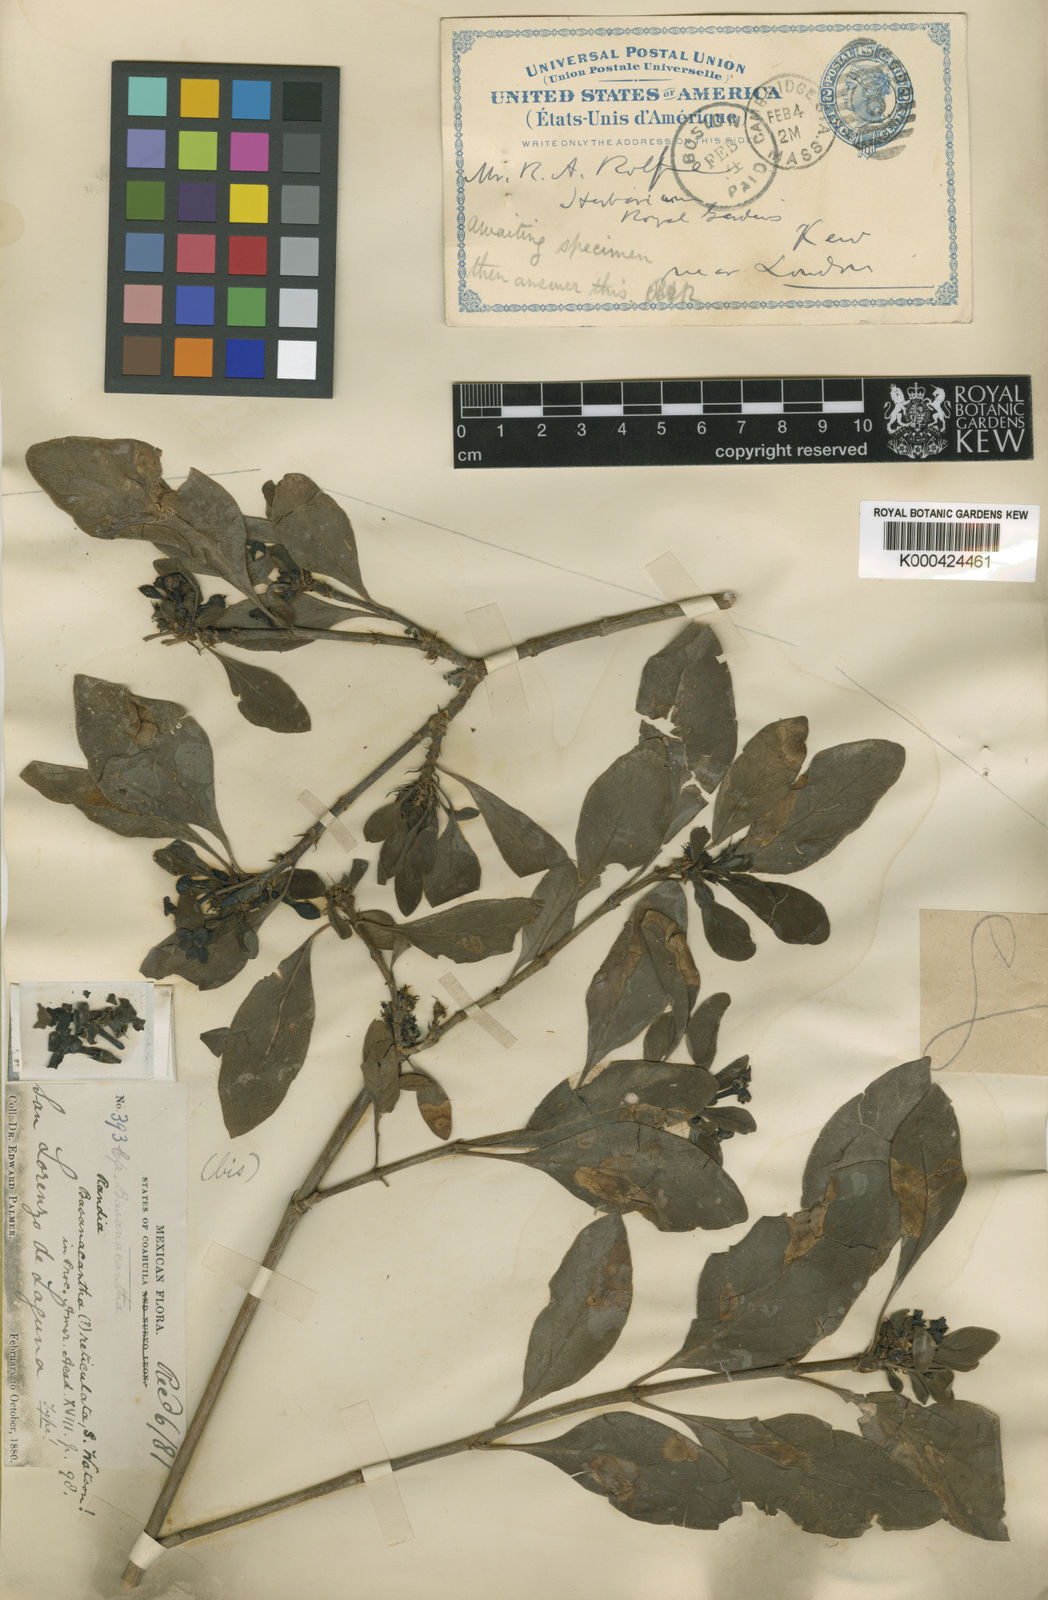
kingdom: Plantae
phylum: Tracheophyta
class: Magnoliopsida
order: Gentianales
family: Rubiaceae
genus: Randia
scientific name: Randia pringlei
